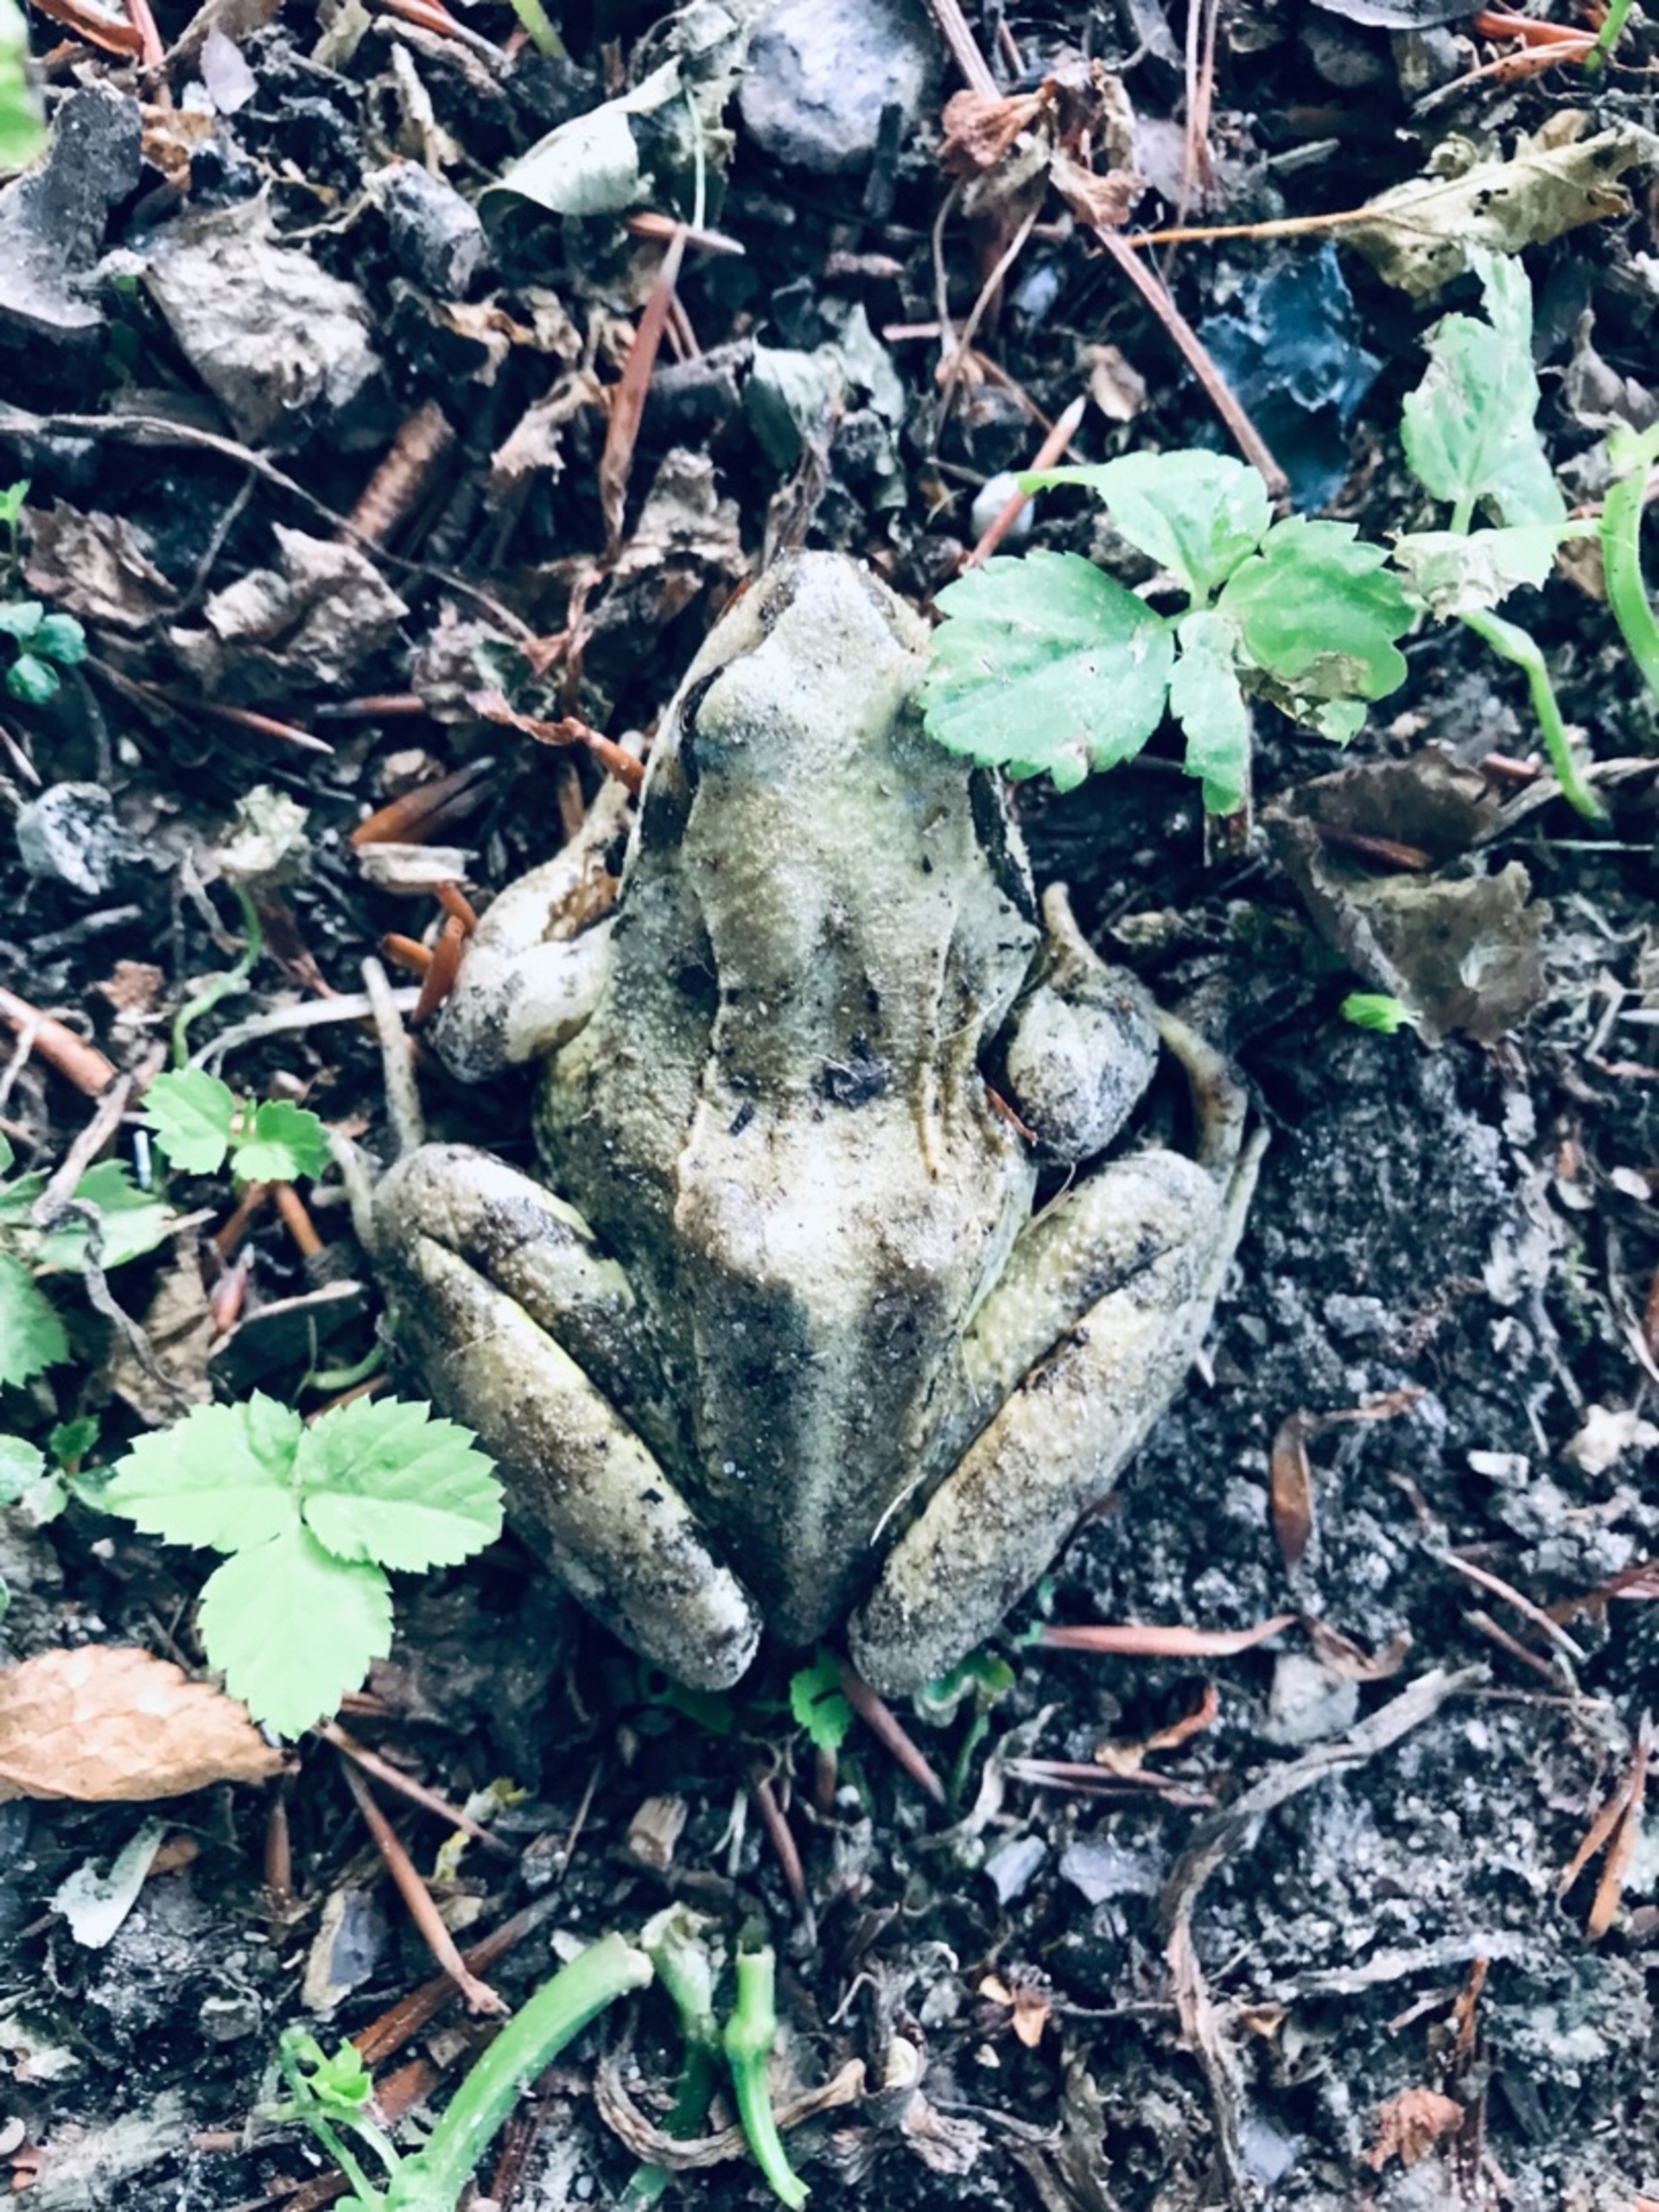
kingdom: Animalia
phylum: Chordata
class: Amphibia
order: Anura
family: Ranidae
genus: Rana
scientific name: Rana temporaria
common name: Butsnudet frø
